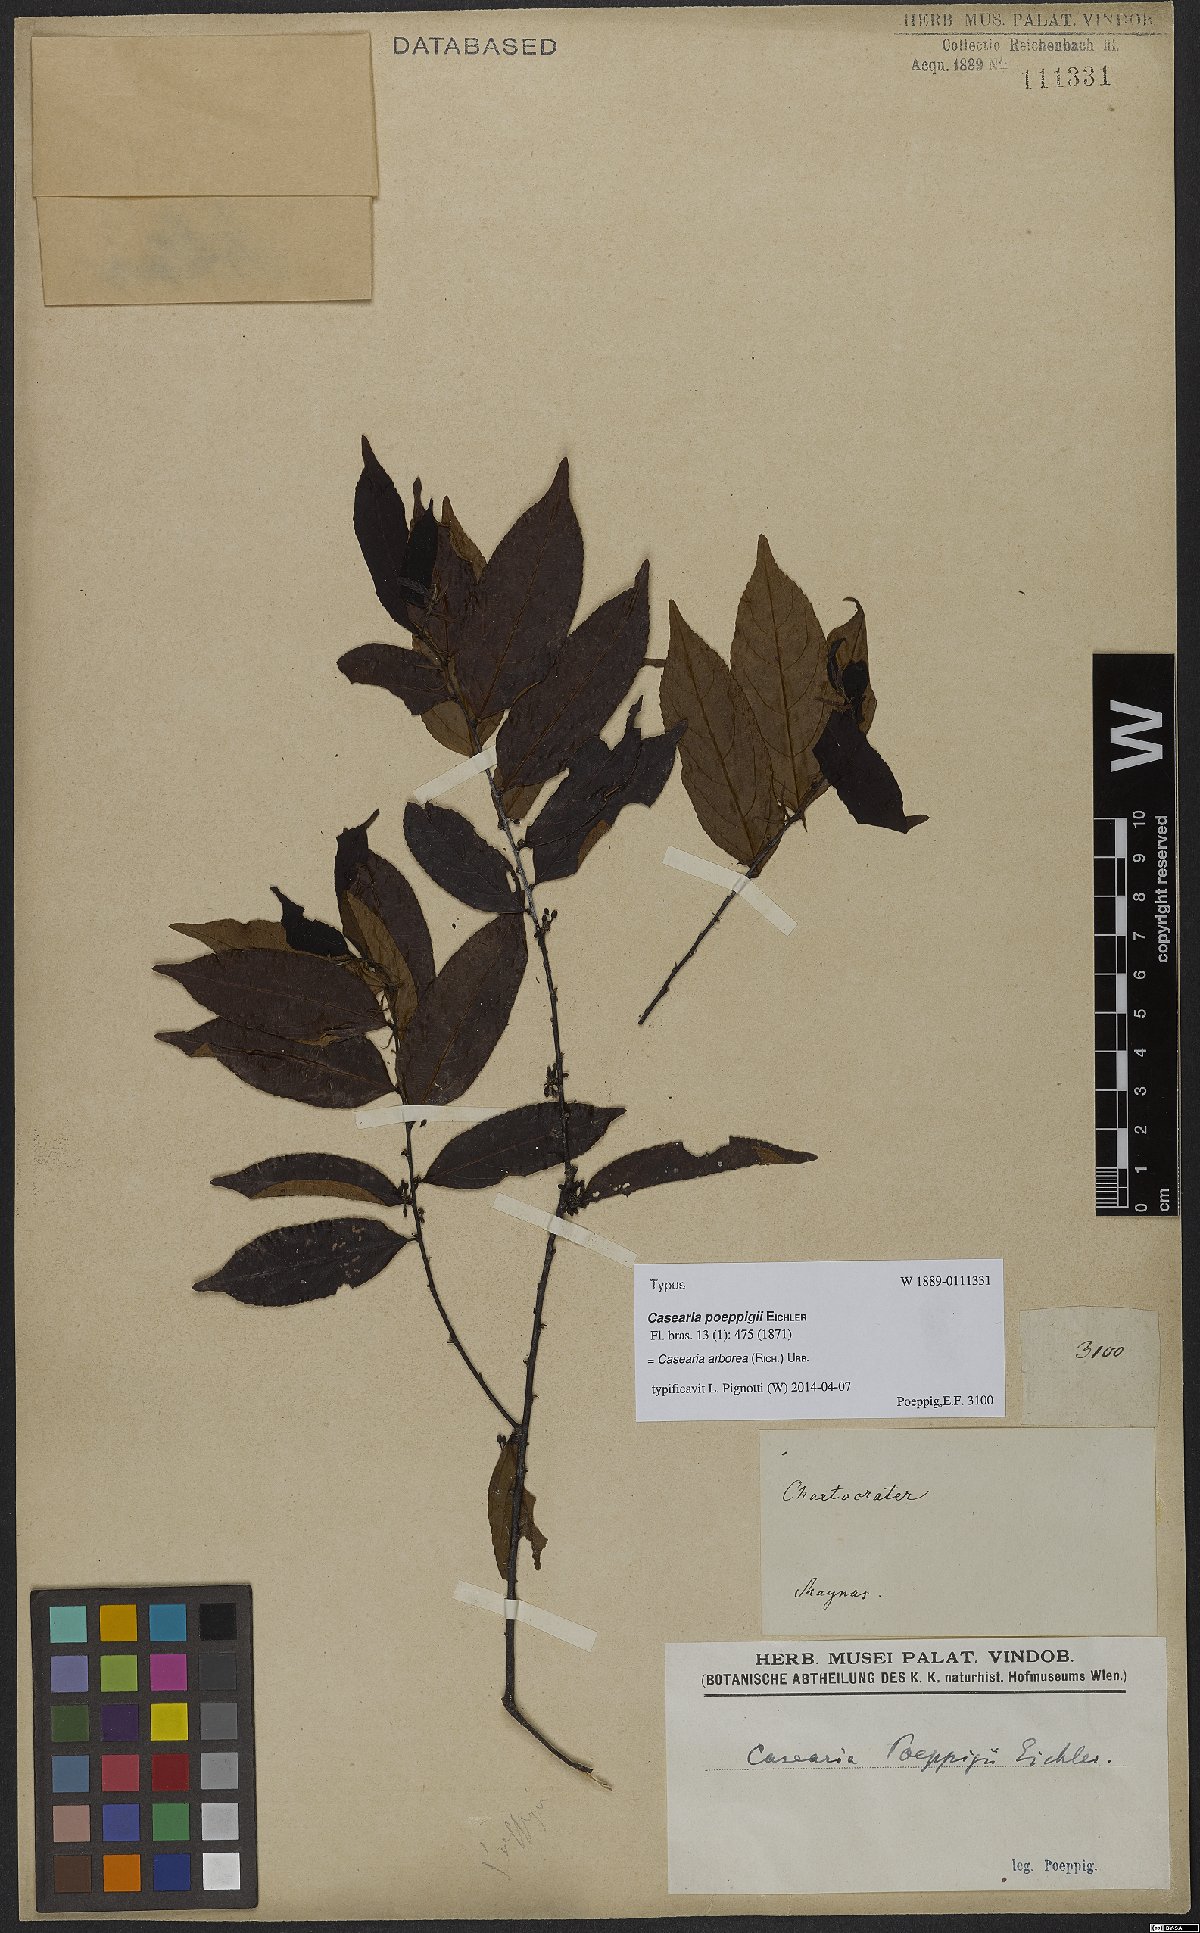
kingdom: Plantae
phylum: Tracheophyta
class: Magnoliopsida
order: Malpighiales
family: Salicaceae
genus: Casearia
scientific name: Casearia arborea
